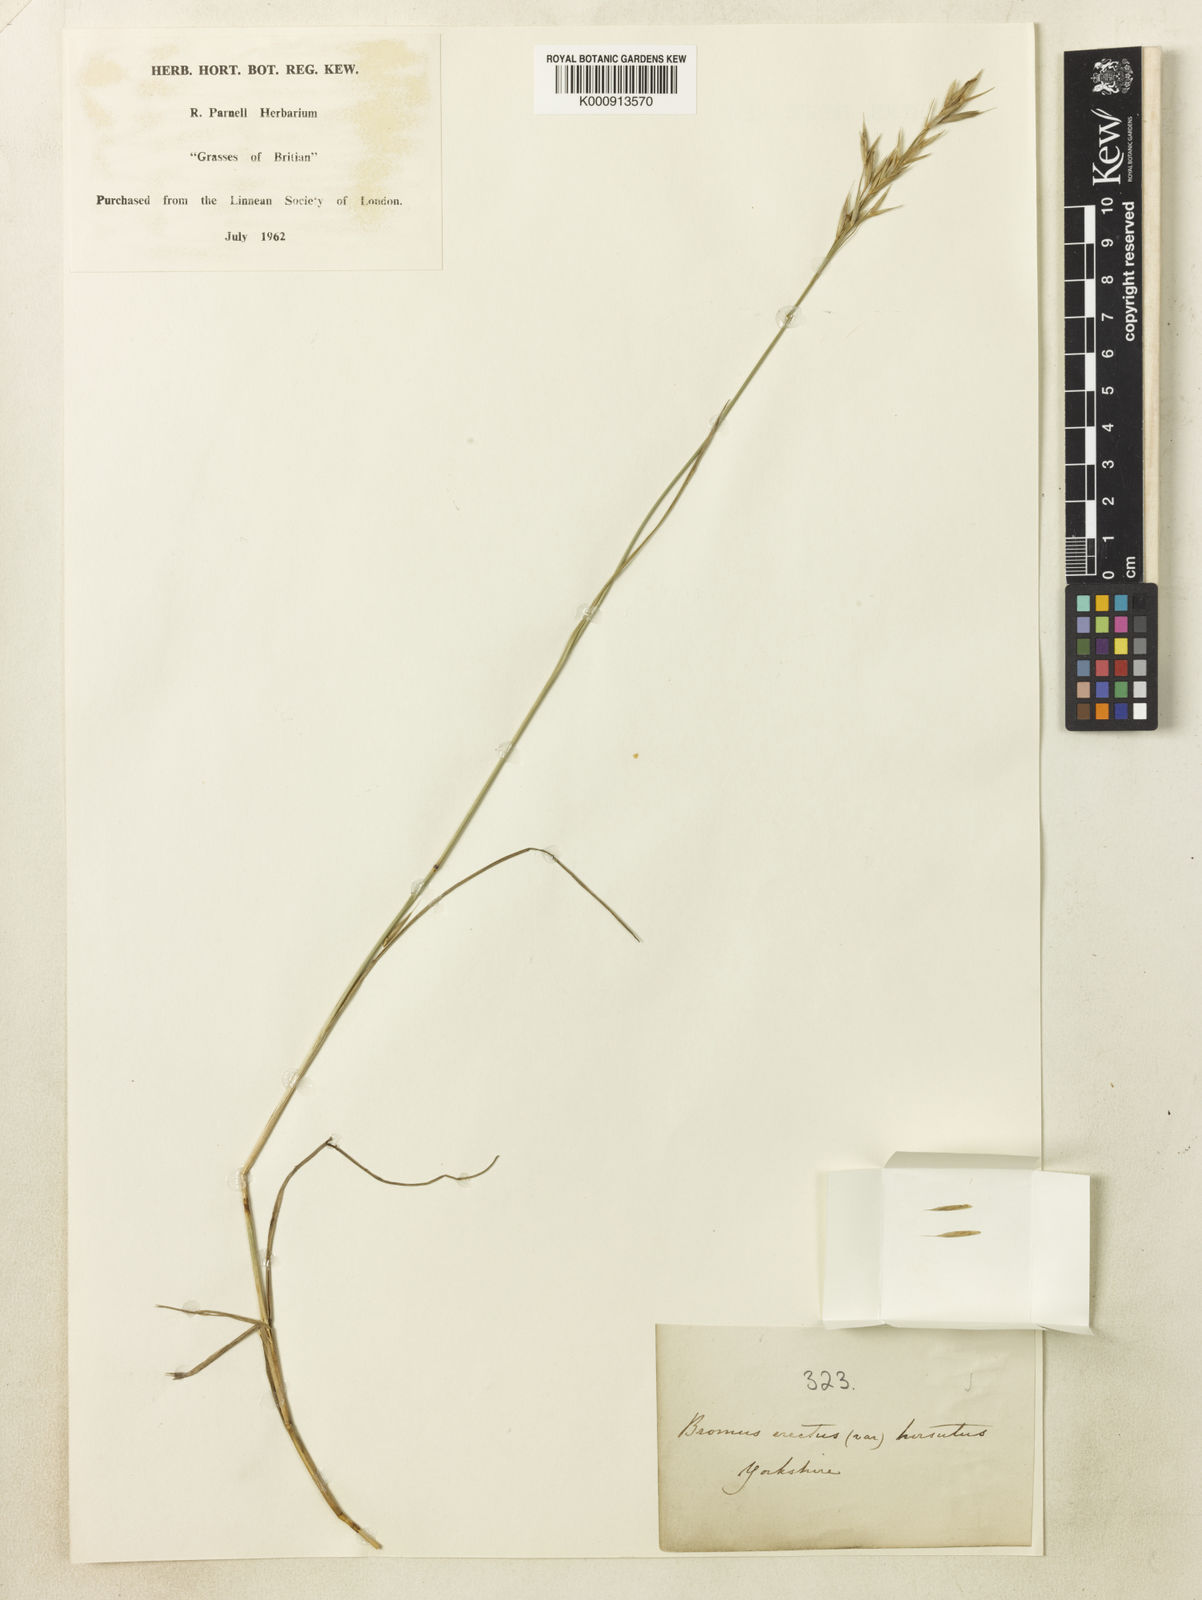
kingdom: Plantae
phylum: Tracheophyta
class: Liliopsida
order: Poales
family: Poaceae
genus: Bromus
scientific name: Bromus erectus
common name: Erect brome
